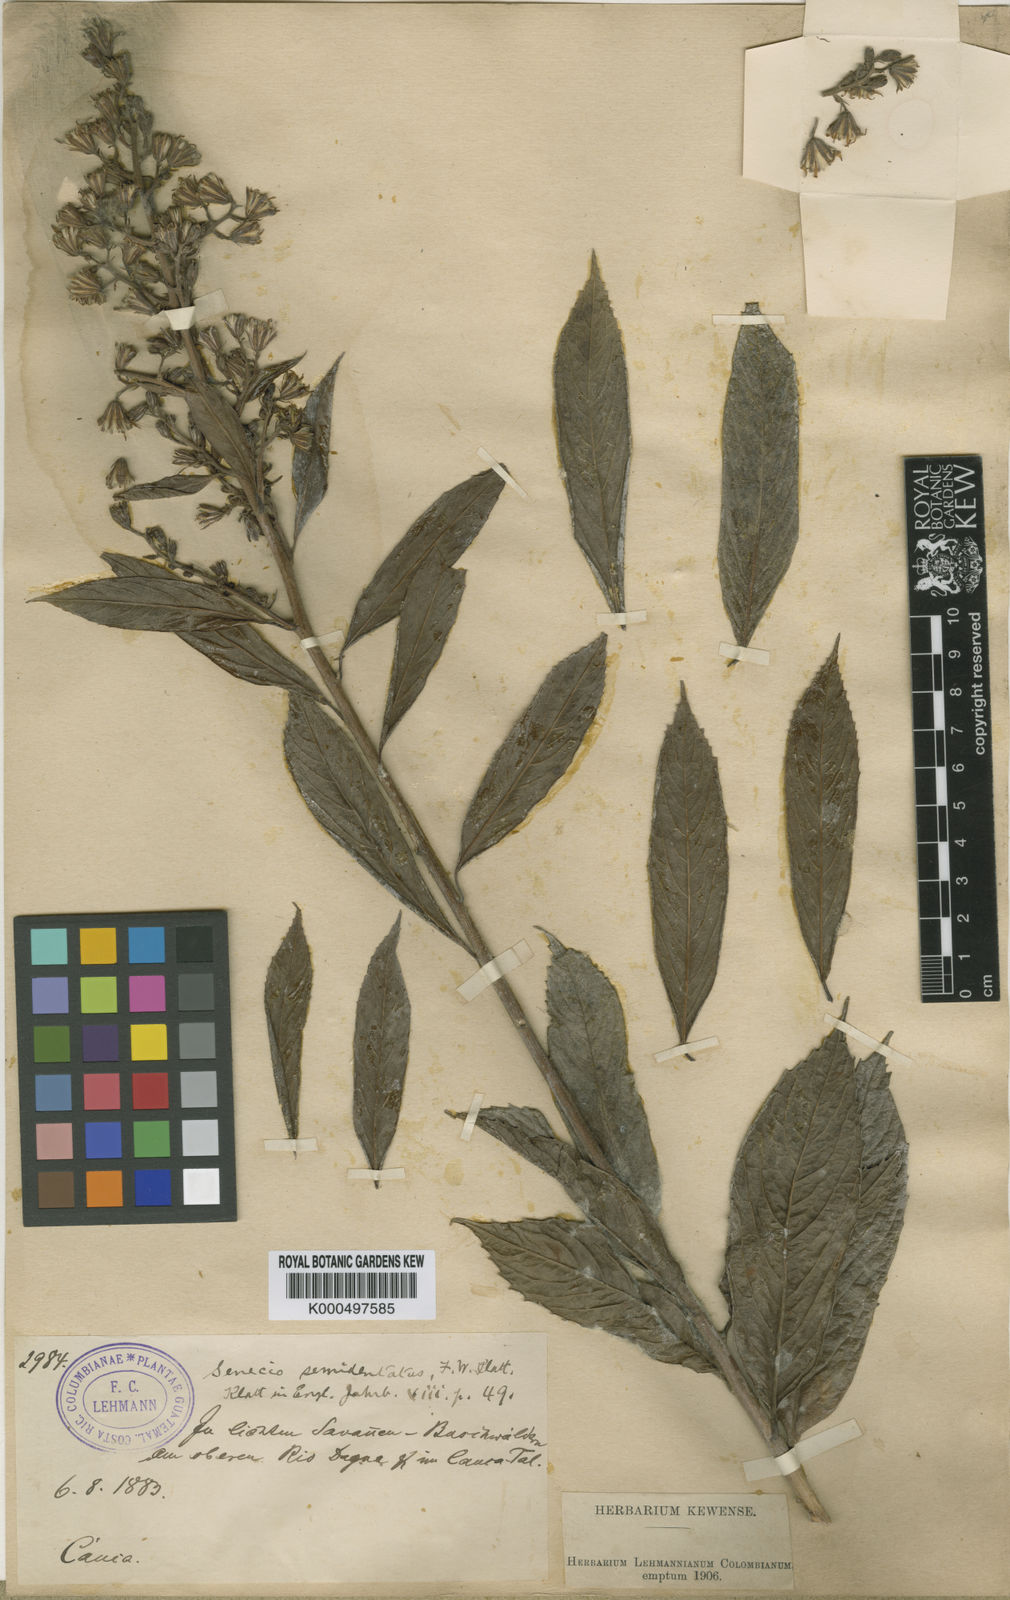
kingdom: Plantae
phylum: Tracheophyta
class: Magnoliopsida
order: Asterales
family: Asteraceae
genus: Dendrophorbium
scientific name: Dendrophorbium reflexum
